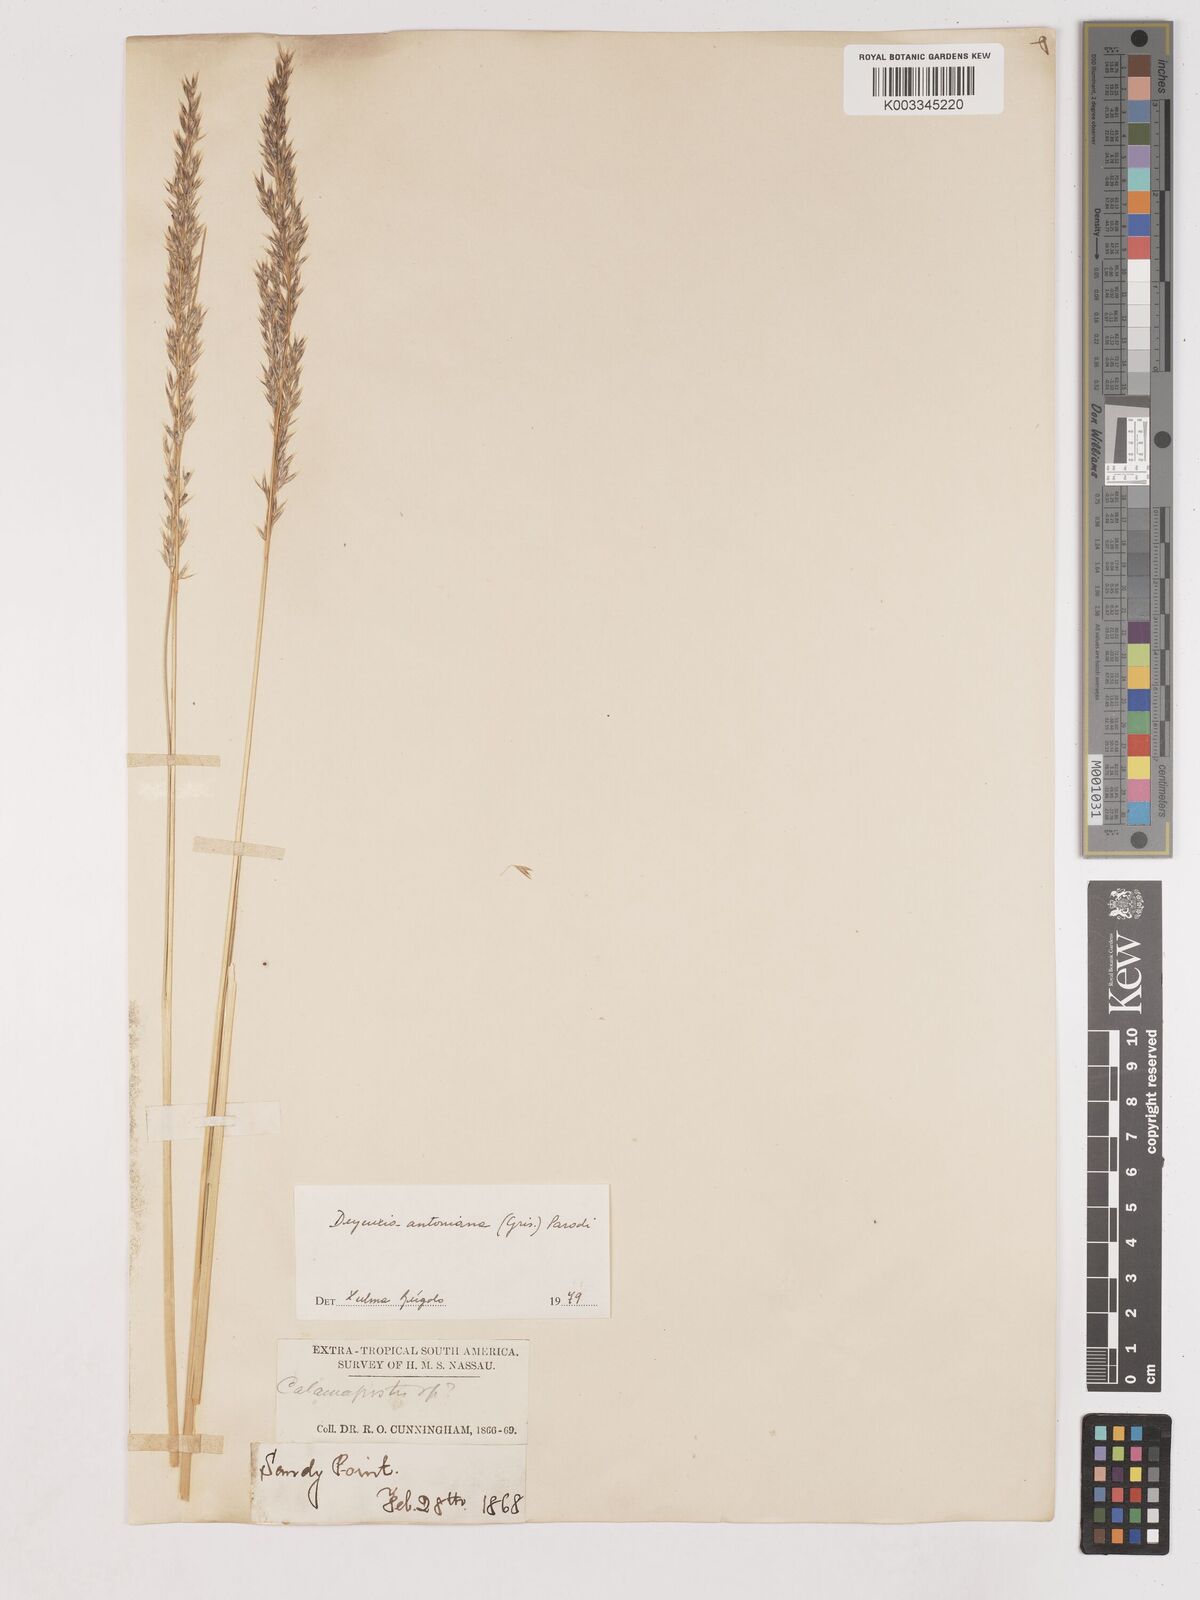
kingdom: Plantae
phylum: Tracheophyta
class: Liliopsida
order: Poales
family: Poaceae
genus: Cinnagrostis
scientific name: Cinnagrostis rigida
